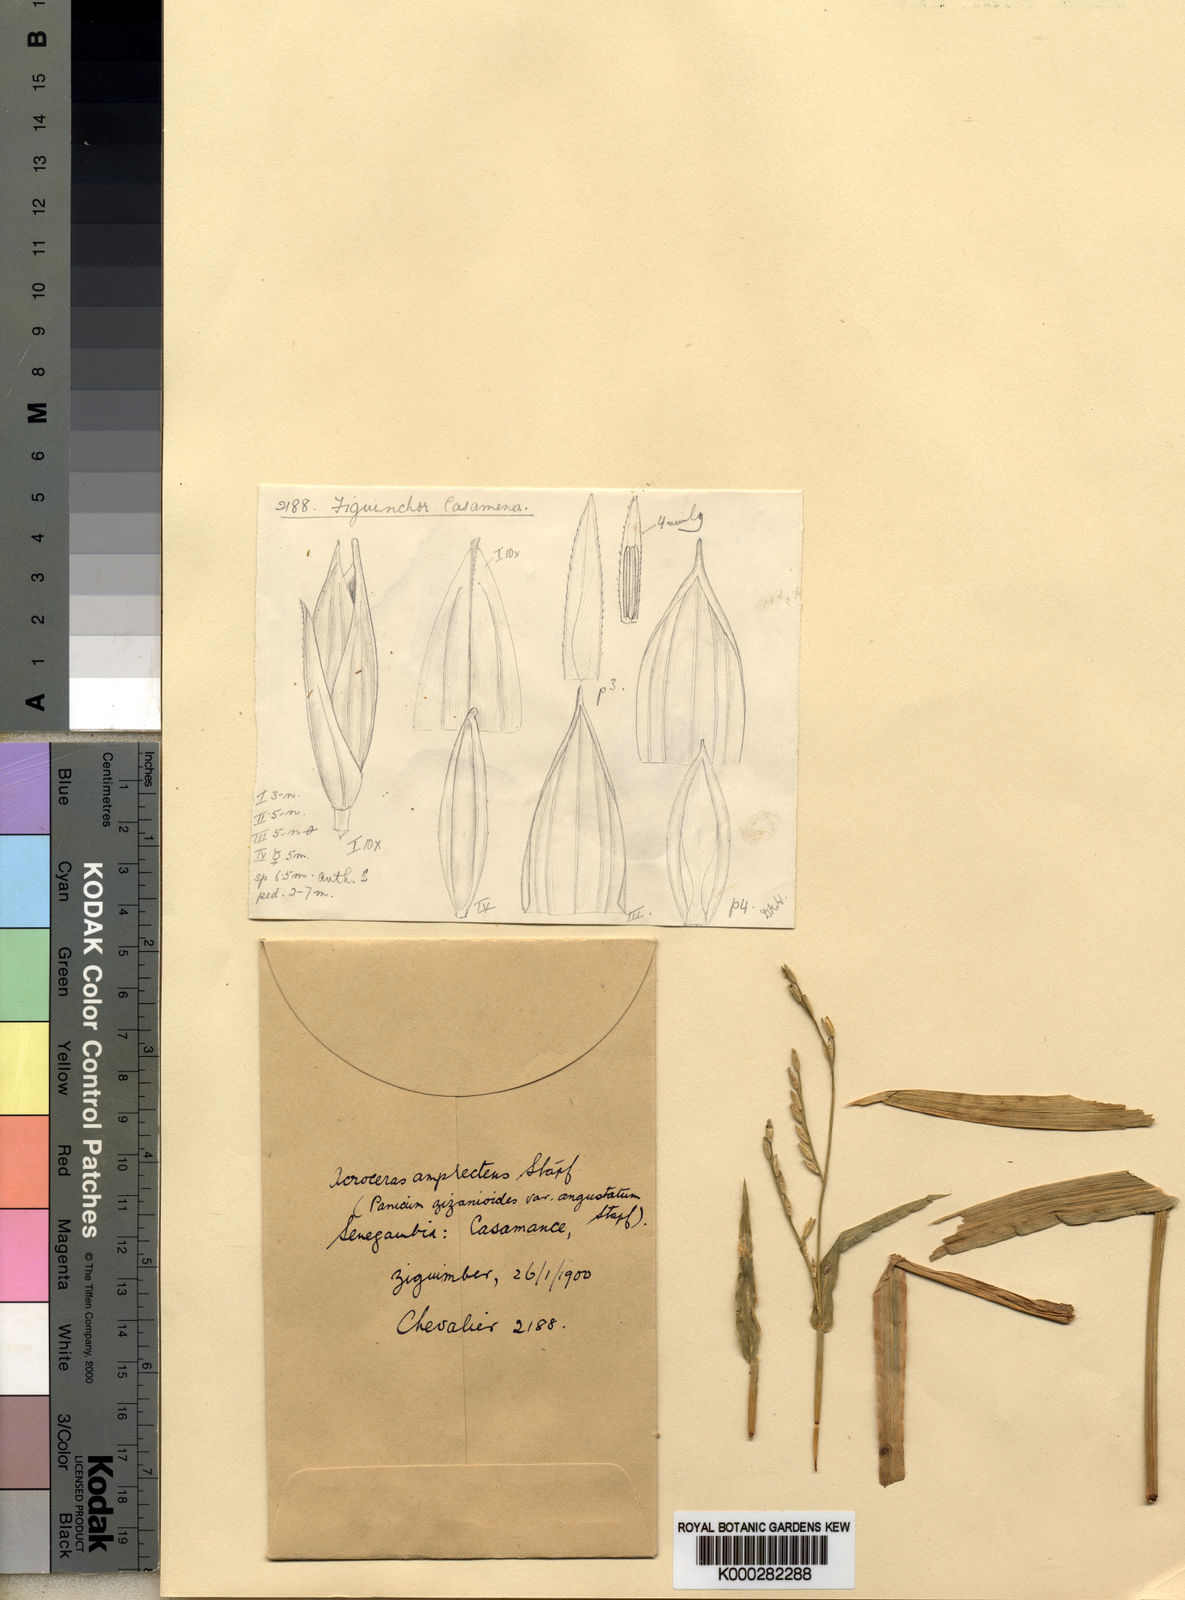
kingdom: Plantae
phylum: Tracheophyta
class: Liliopsida
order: Poales
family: Poaceae
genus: Acroceras
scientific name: Acroceras amplectens
